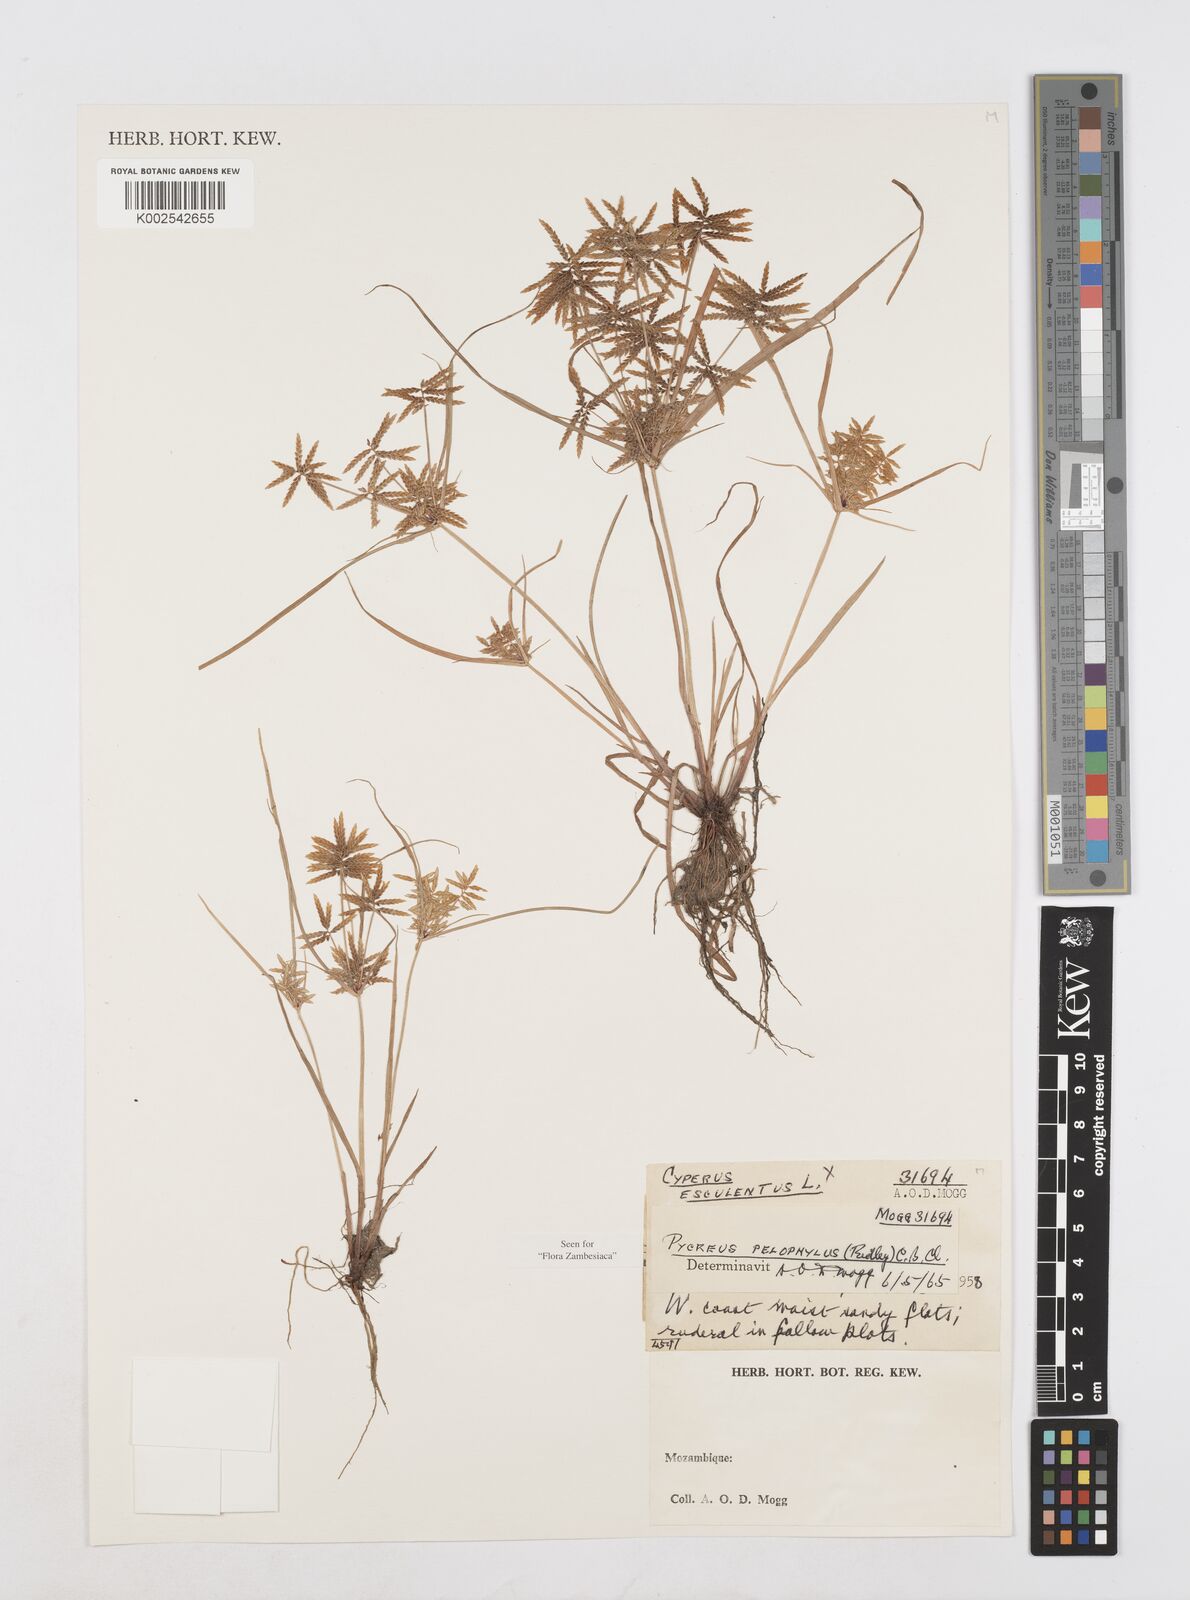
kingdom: Plantae
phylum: Tracheophyta
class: Liliopsida
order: Poales
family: Cyperaceae
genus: Cyperus
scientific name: Cyperus pelophilus
